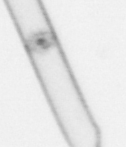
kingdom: Chromista
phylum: Ochrophyta
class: Bacillariophyceae
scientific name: Bacillariophyceae
